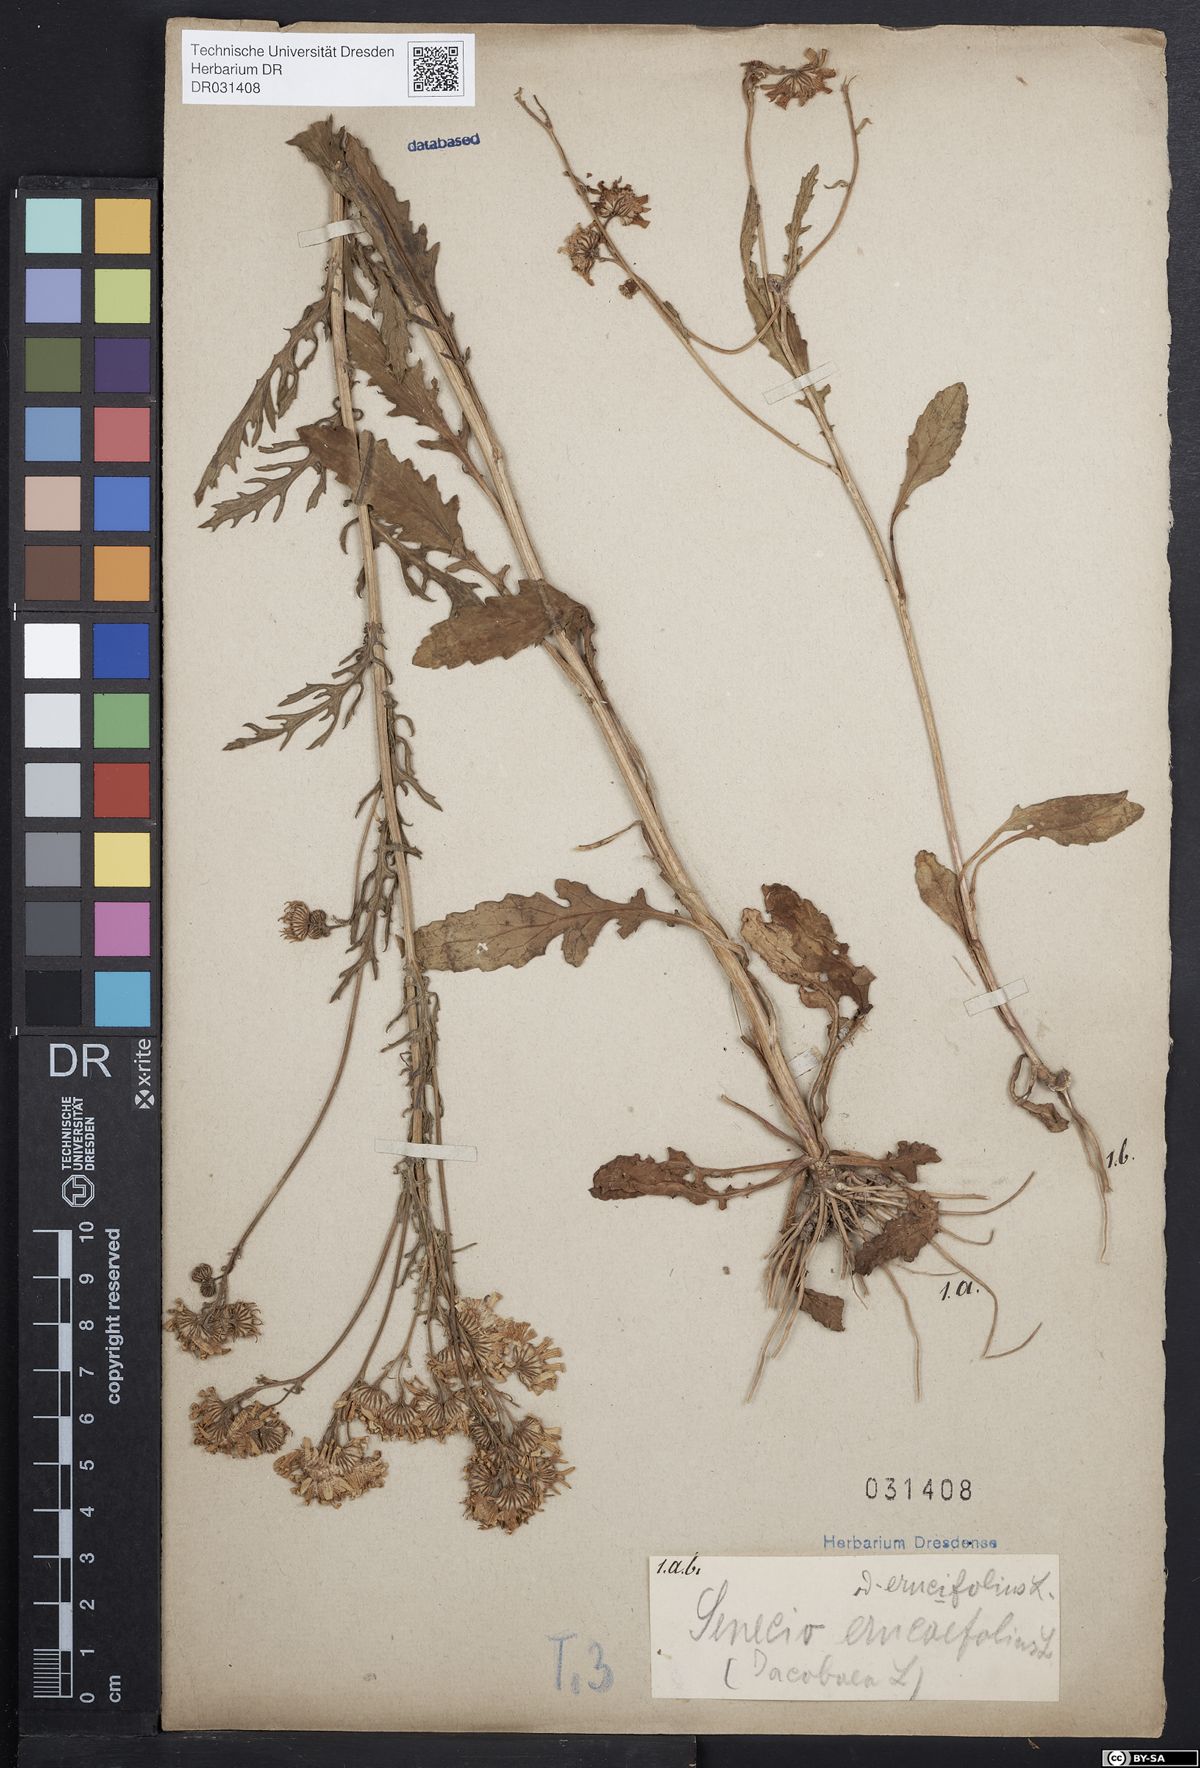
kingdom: Plantae
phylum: Tracheophyta
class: Magnoliopsida
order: Asterales
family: Asteraceae
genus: Jacobaea
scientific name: Jacobaea erucifolia
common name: Hoary ragwort
